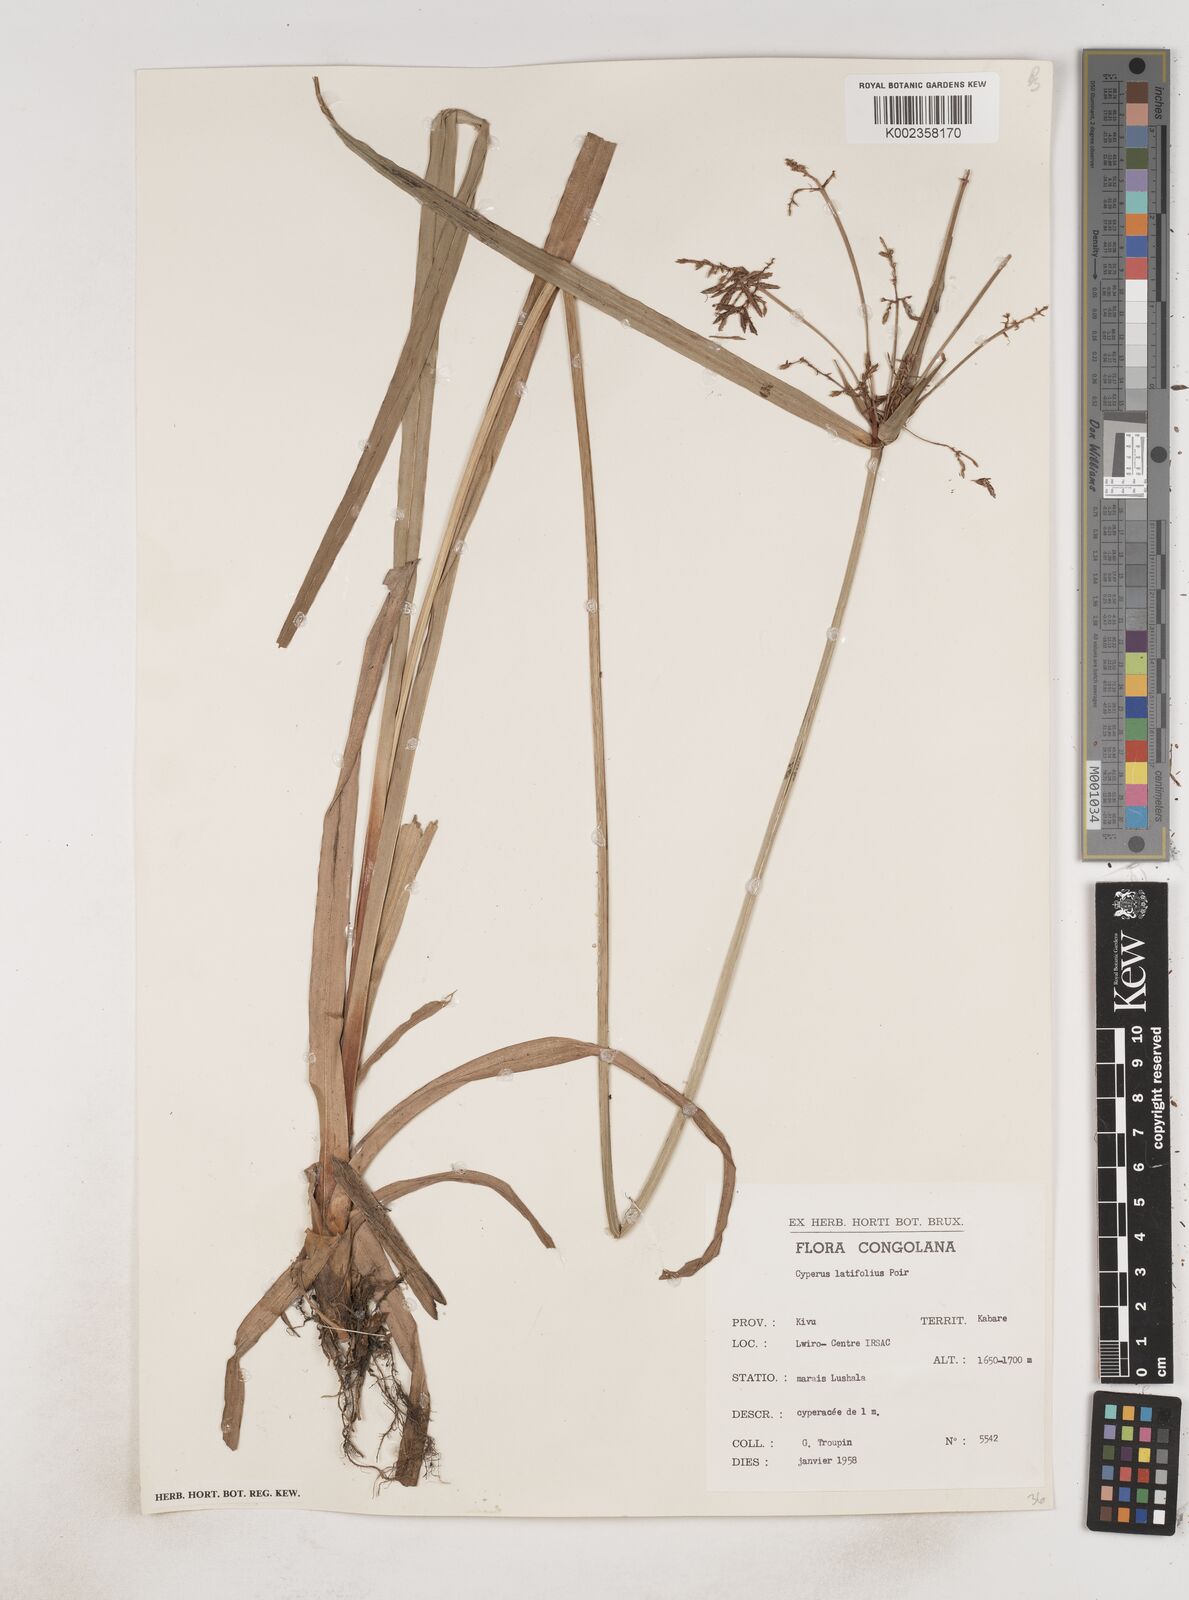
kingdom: Plantae
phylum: Tracheophyta
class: Liliopsida
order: Poales
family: Cyperaceae
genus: Cyperus
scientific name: Cyperus latifolius
